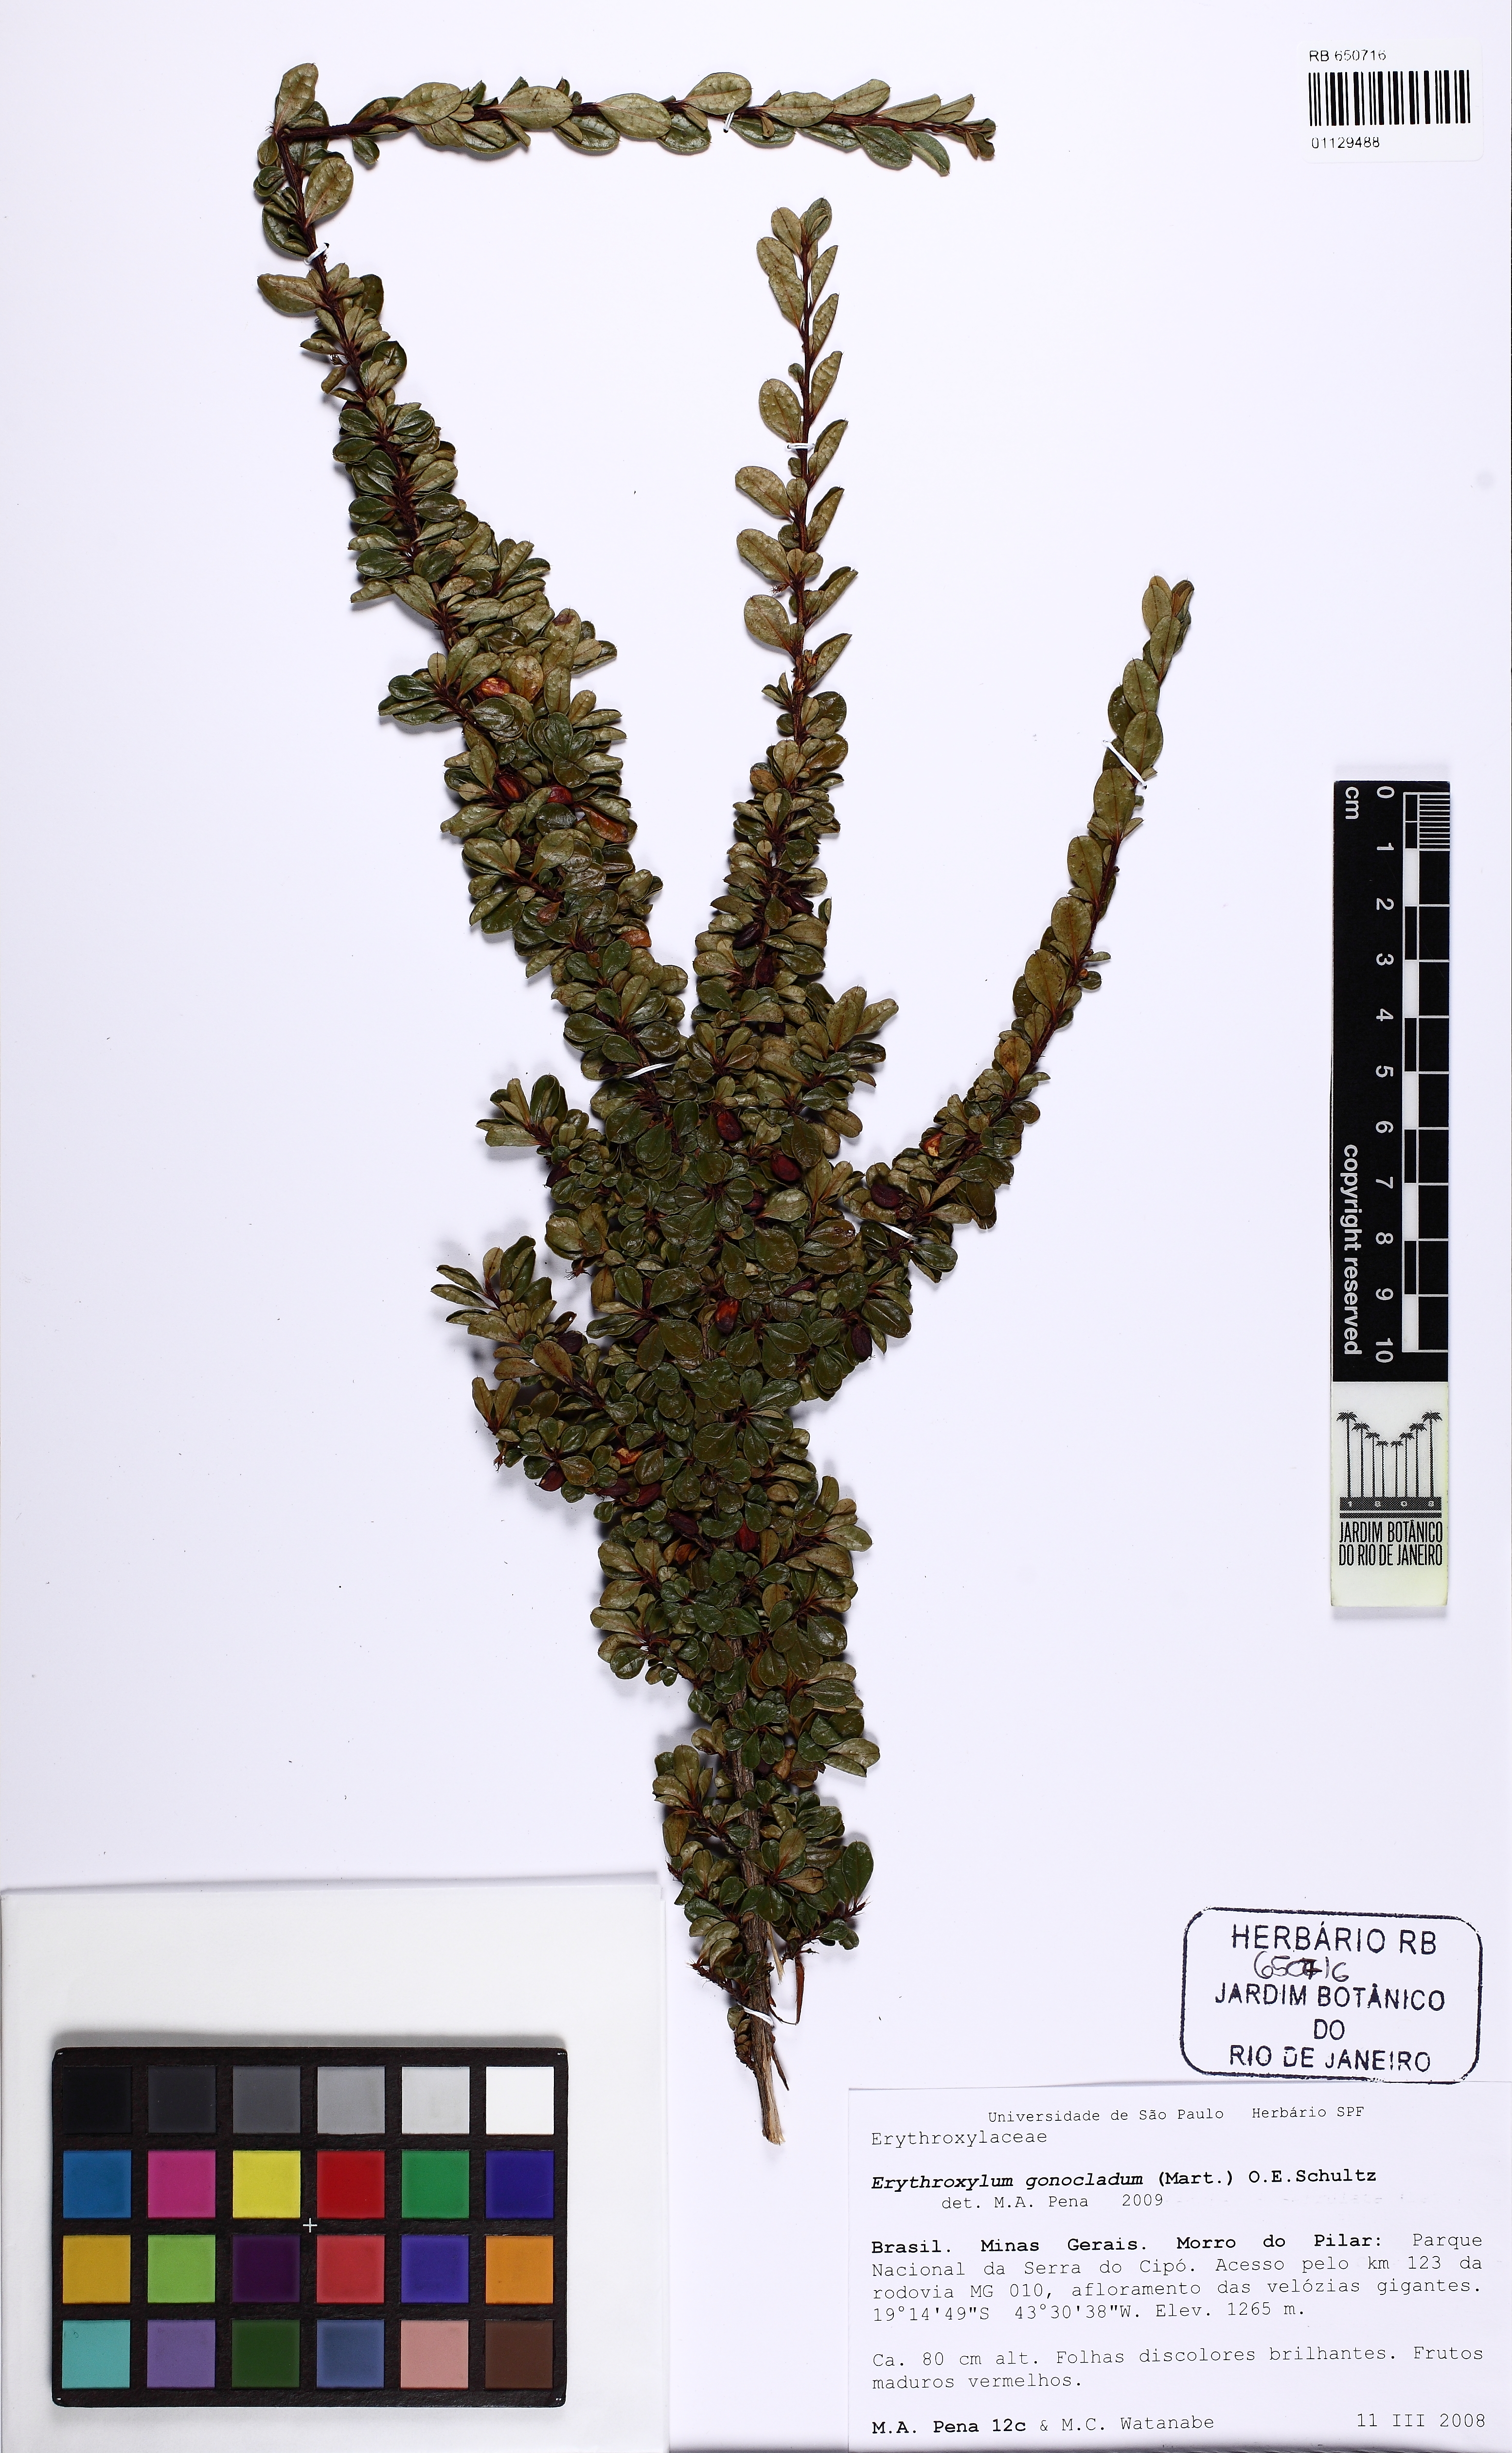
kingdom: Plantae
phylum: Tracheophyta
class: Magnoliopsida
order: Malpighiales
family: Erythroxylaceae
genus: Erythroxylum
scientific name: Erythroxylum gonoclados
